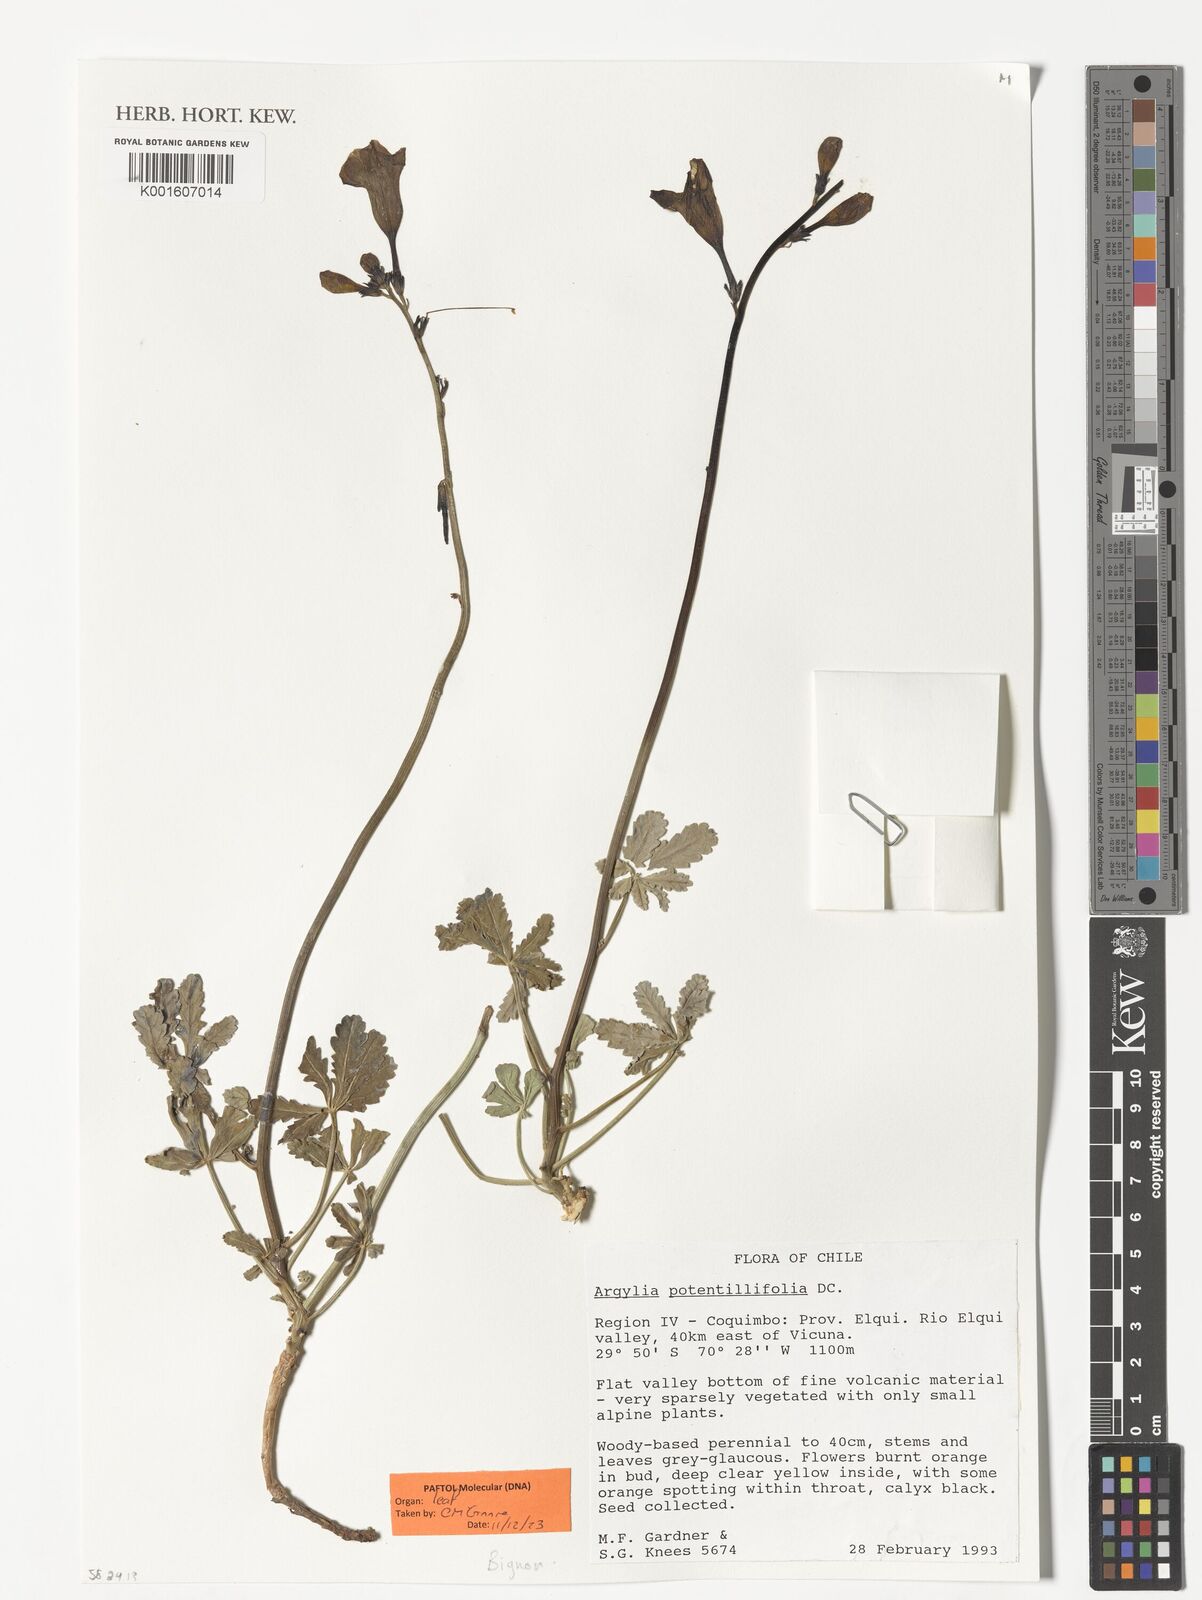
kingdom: Plantae
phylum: Tracheophyta
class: Magnoliopsida
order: Lamiales
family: Bignoniaceae
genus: Argylia
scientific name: Argylia potentillifolia
